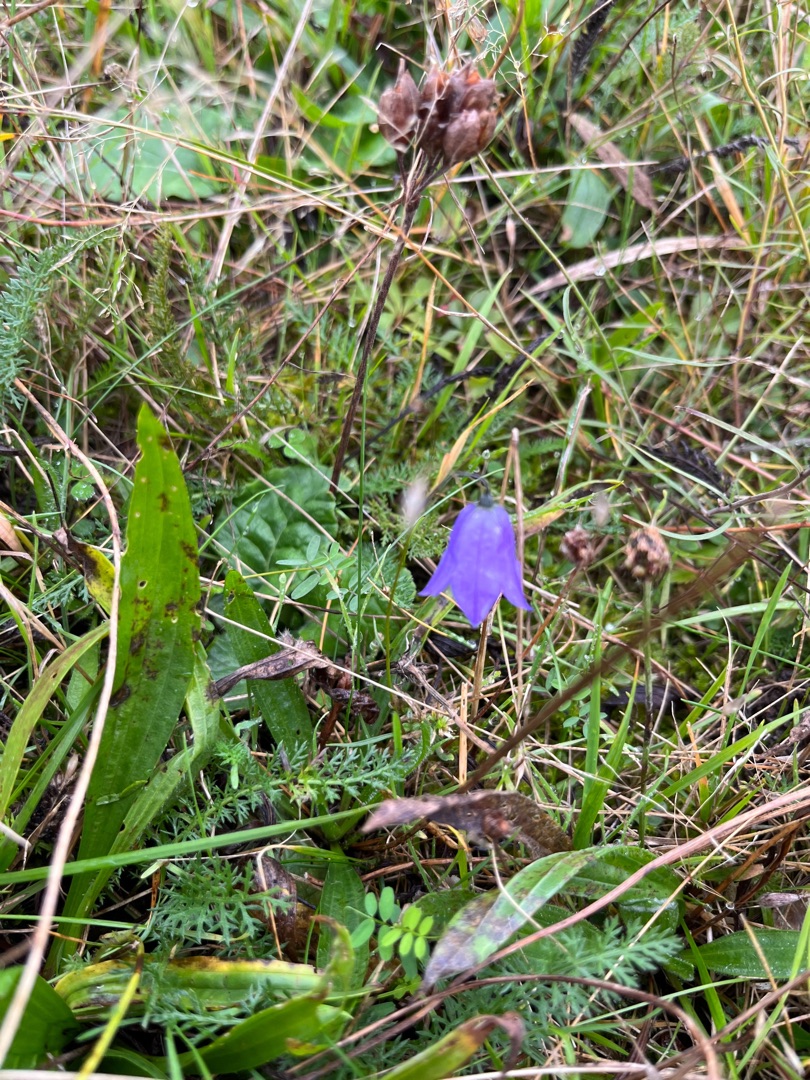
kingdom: Plantae
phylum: Tracheophyta
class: Magnoliopsida
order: Asterales
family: Campanulaceae
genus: Campanula
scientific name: Campanula rotundifolia
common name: Liden klokke
